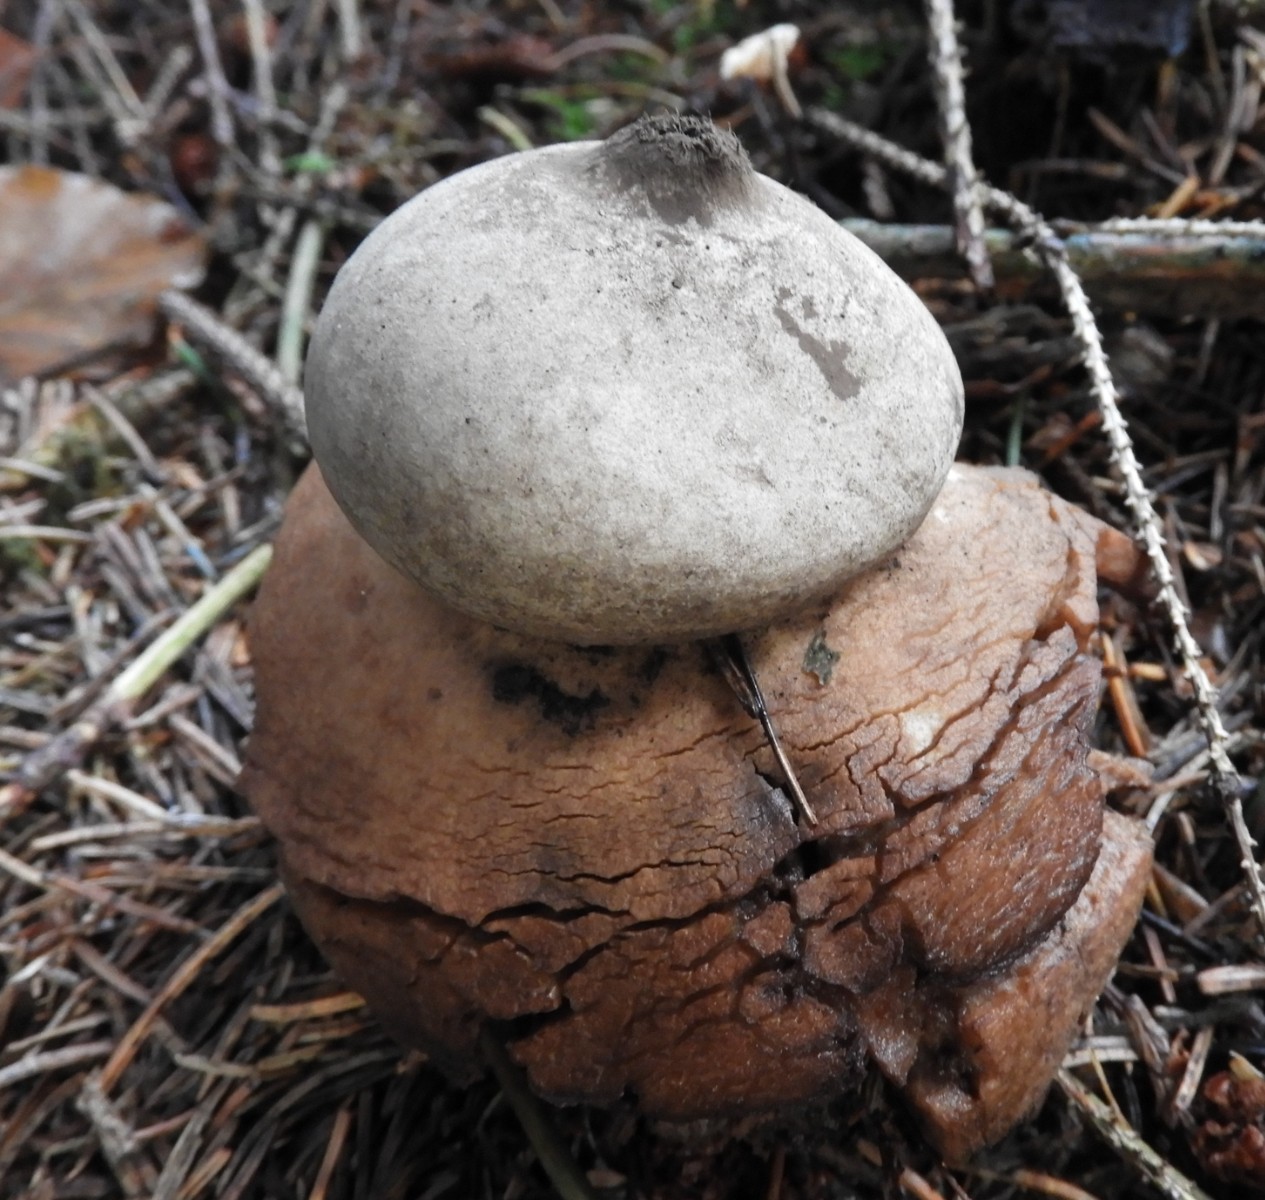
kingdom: Fungi
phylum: Basidiomycota
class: Agaricomycetes
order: Geastrales
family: Geastraceae
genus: Geastrum
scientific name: Geastrum michelianum
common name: kødet stjernebold
